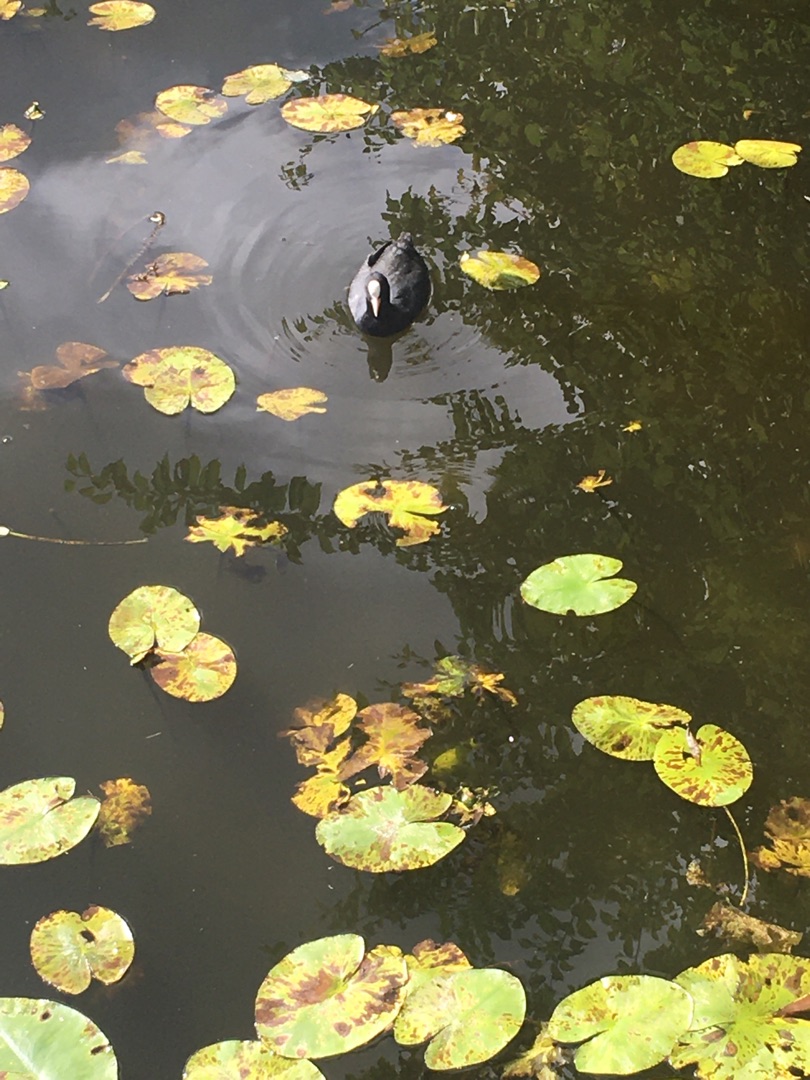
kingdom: Animalia
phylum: Chordata
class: Aves
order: Gruiformes
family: Rallidae
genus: Fulica
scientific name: Fulica atra
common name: Blishøne
